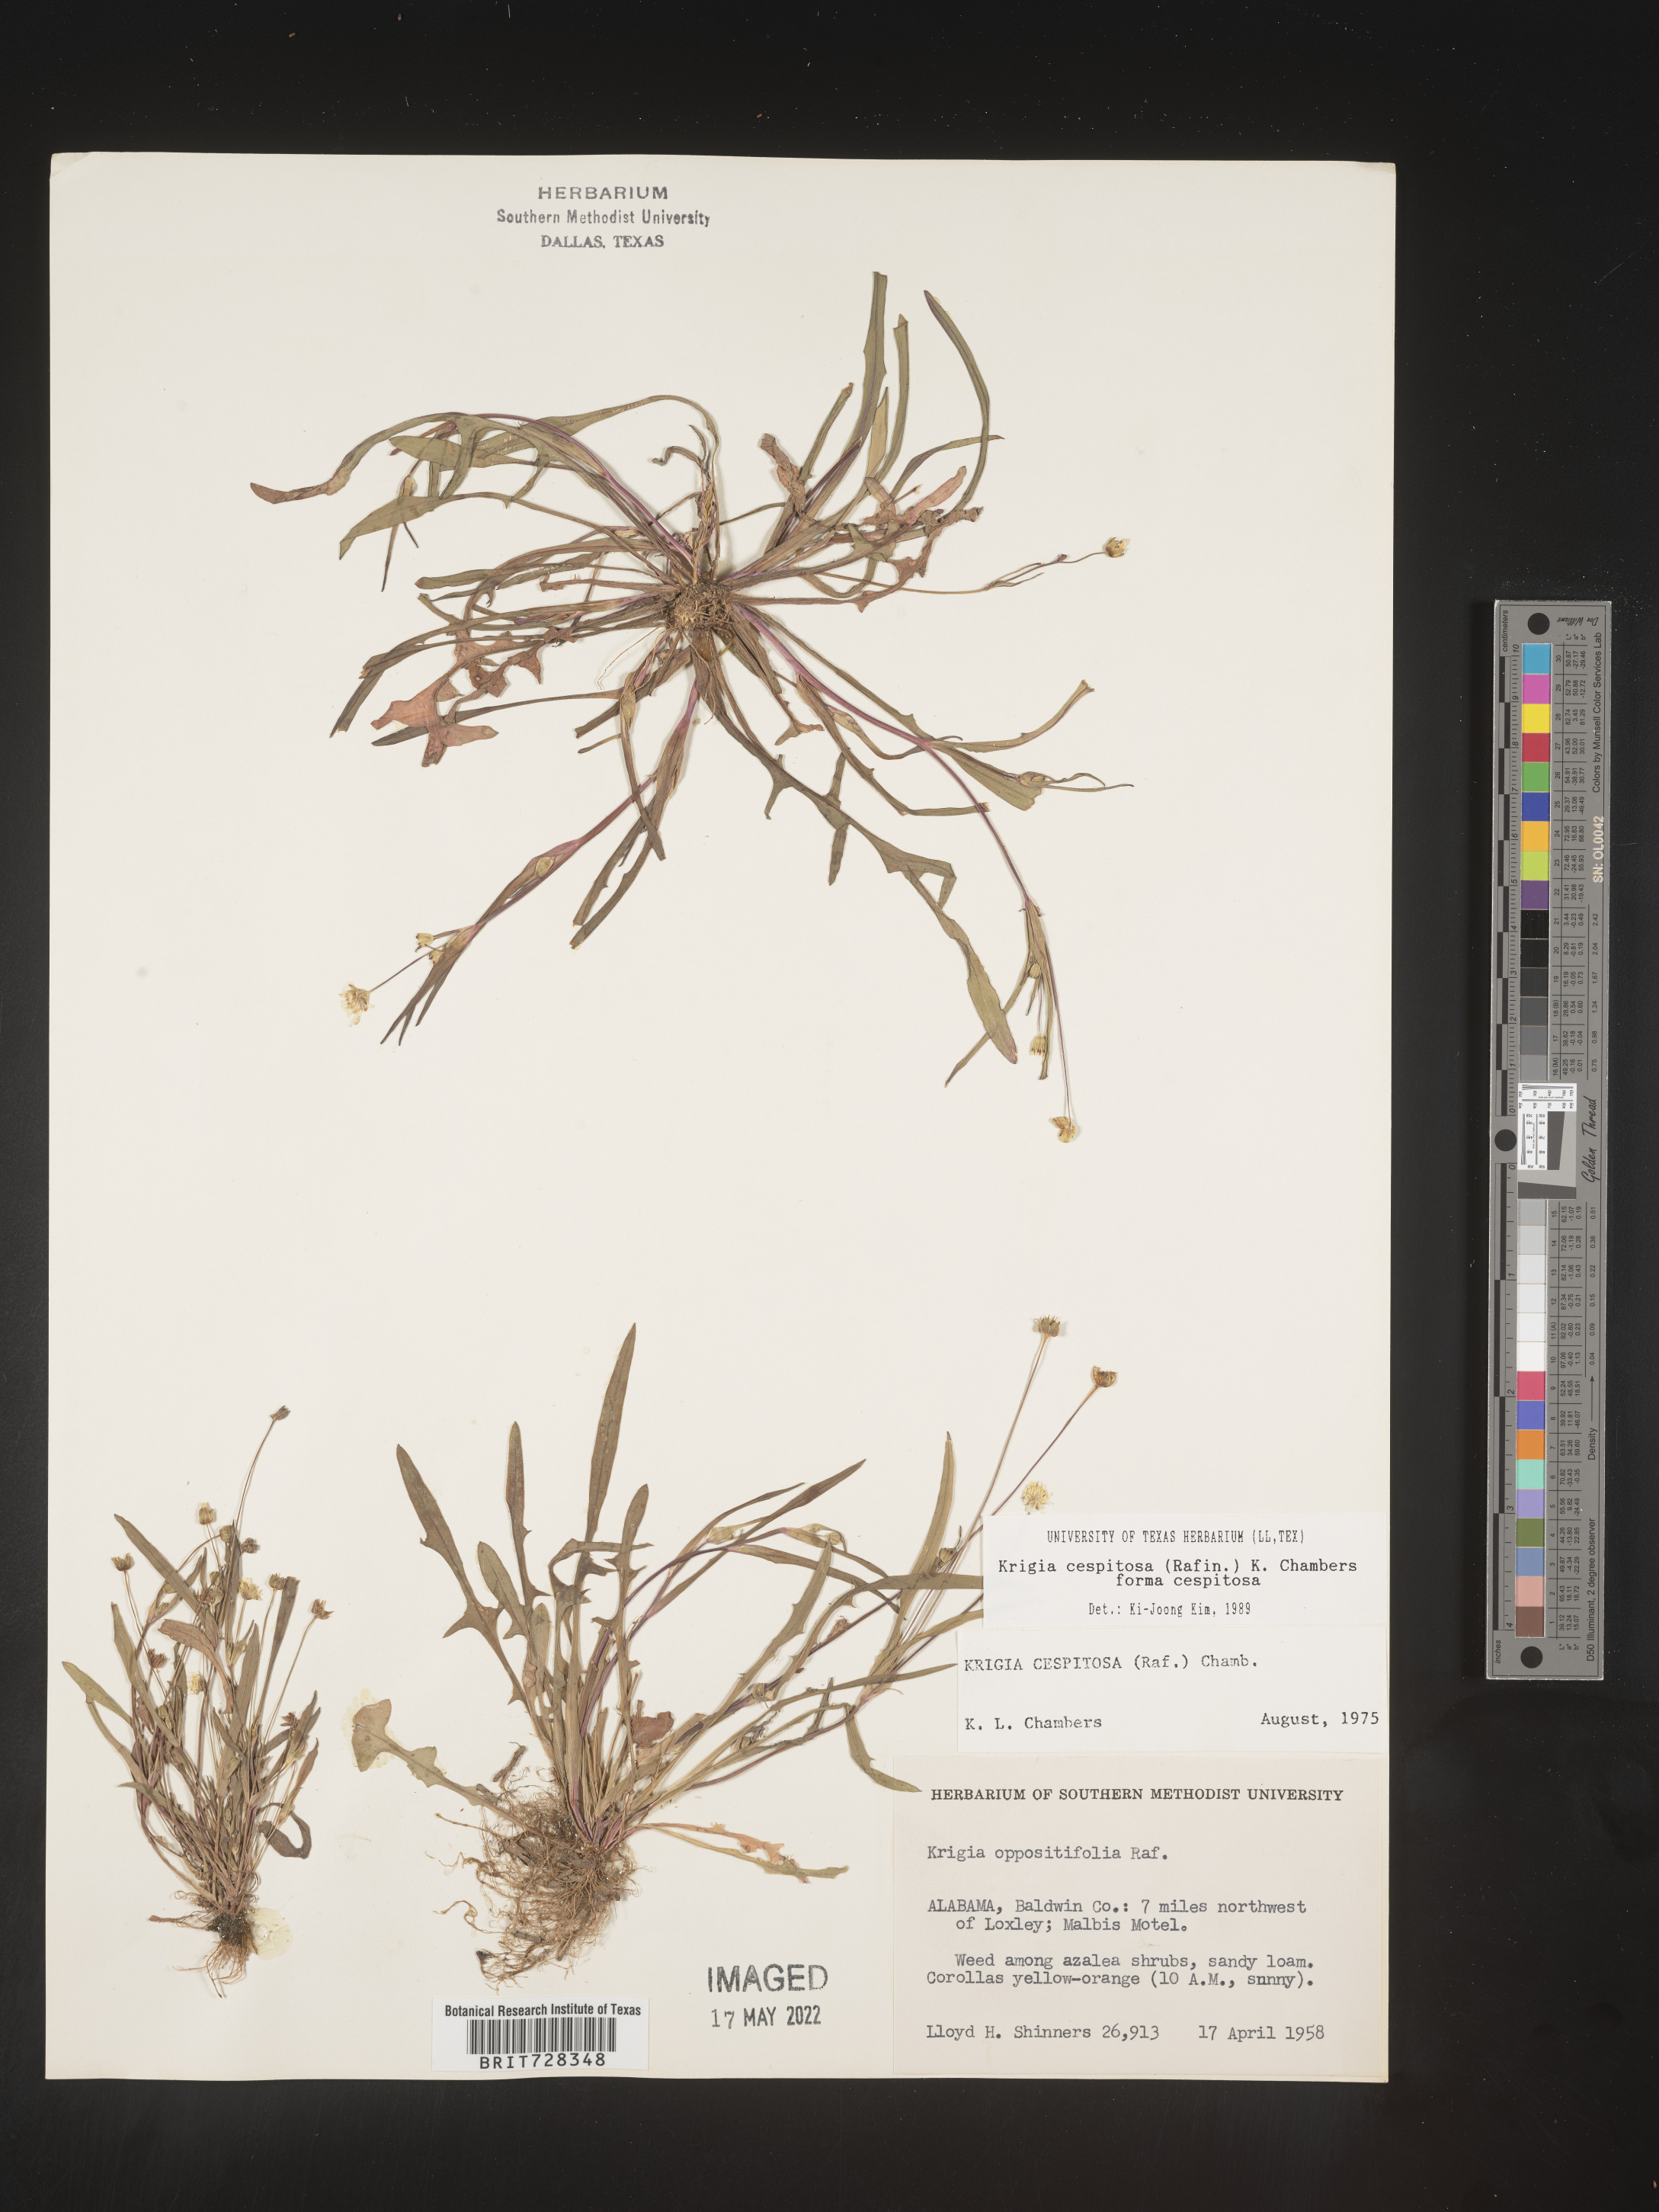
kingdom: Plantae
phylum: Tracheophyta
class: Magnoliopsida
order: Asterales
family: Asteraceae
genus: Krigia
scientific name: Krigia caespitosa
